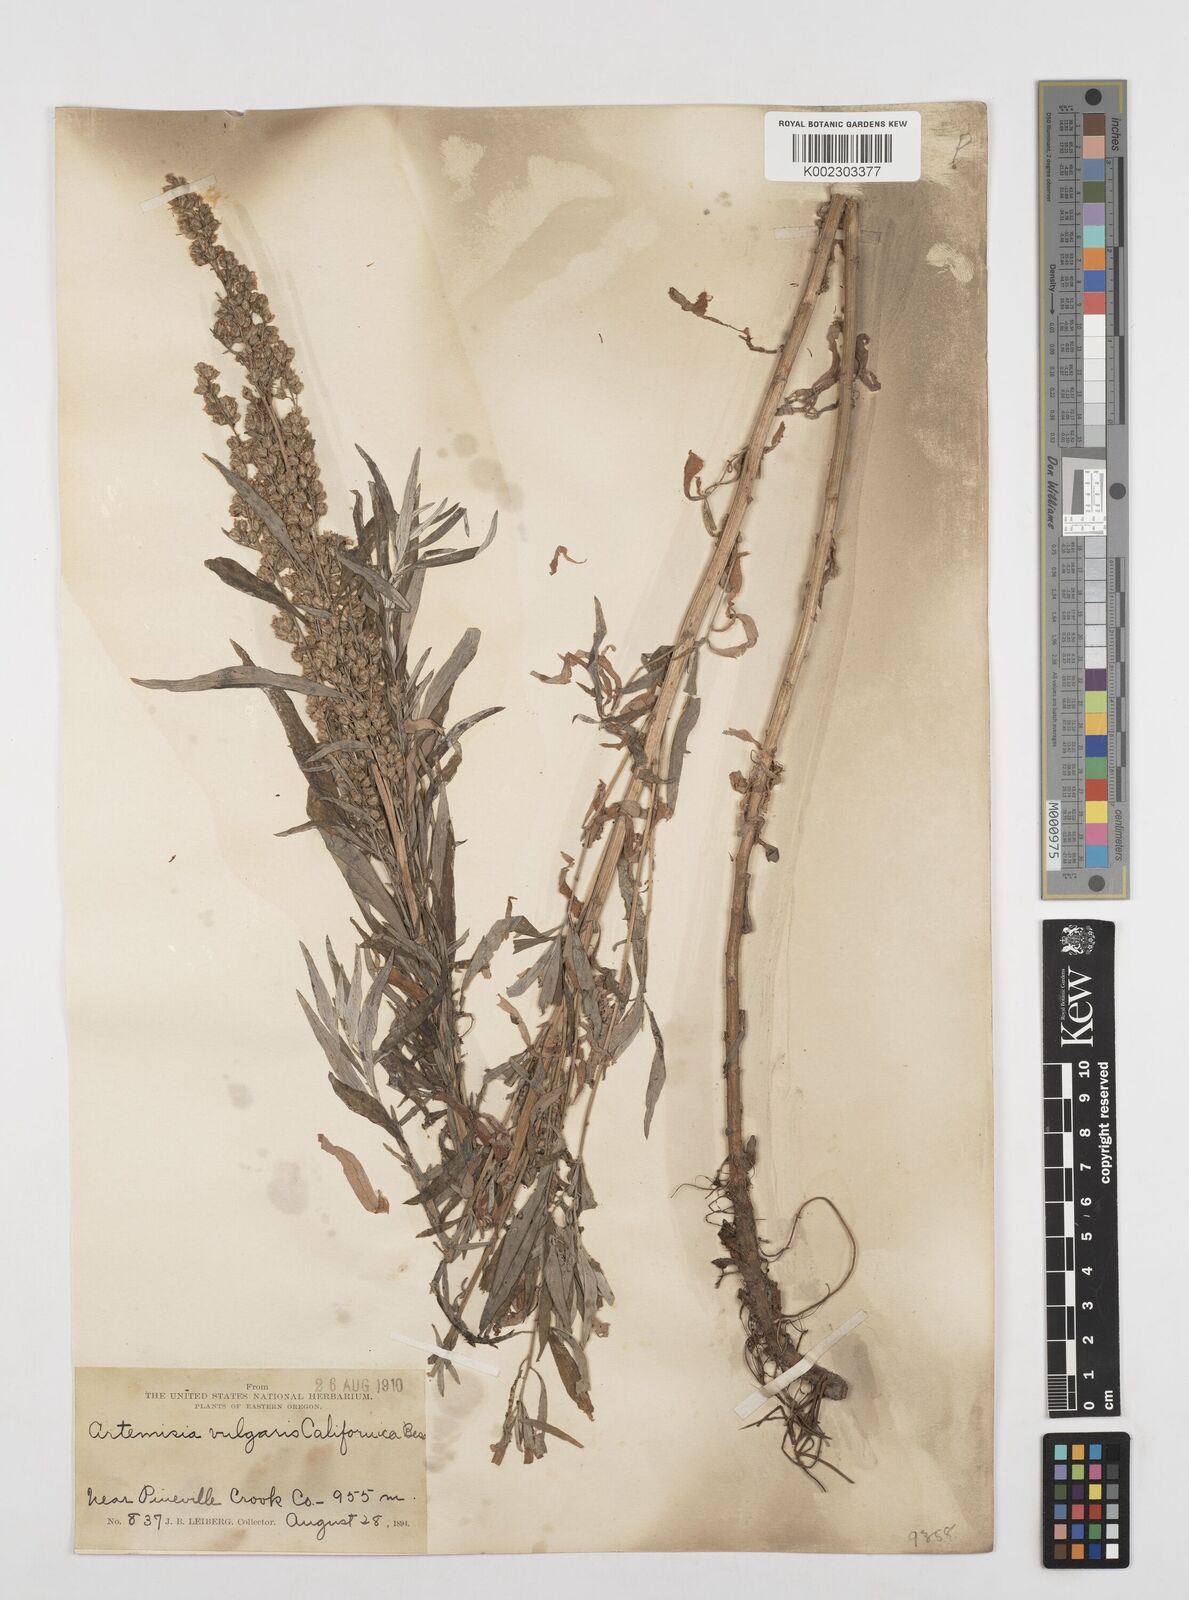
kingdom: Plantae
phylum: Tracheophyta
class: Magnoliopsida
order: Asterales
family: Asteraceae
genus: Artemisia
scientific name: Artemisia
